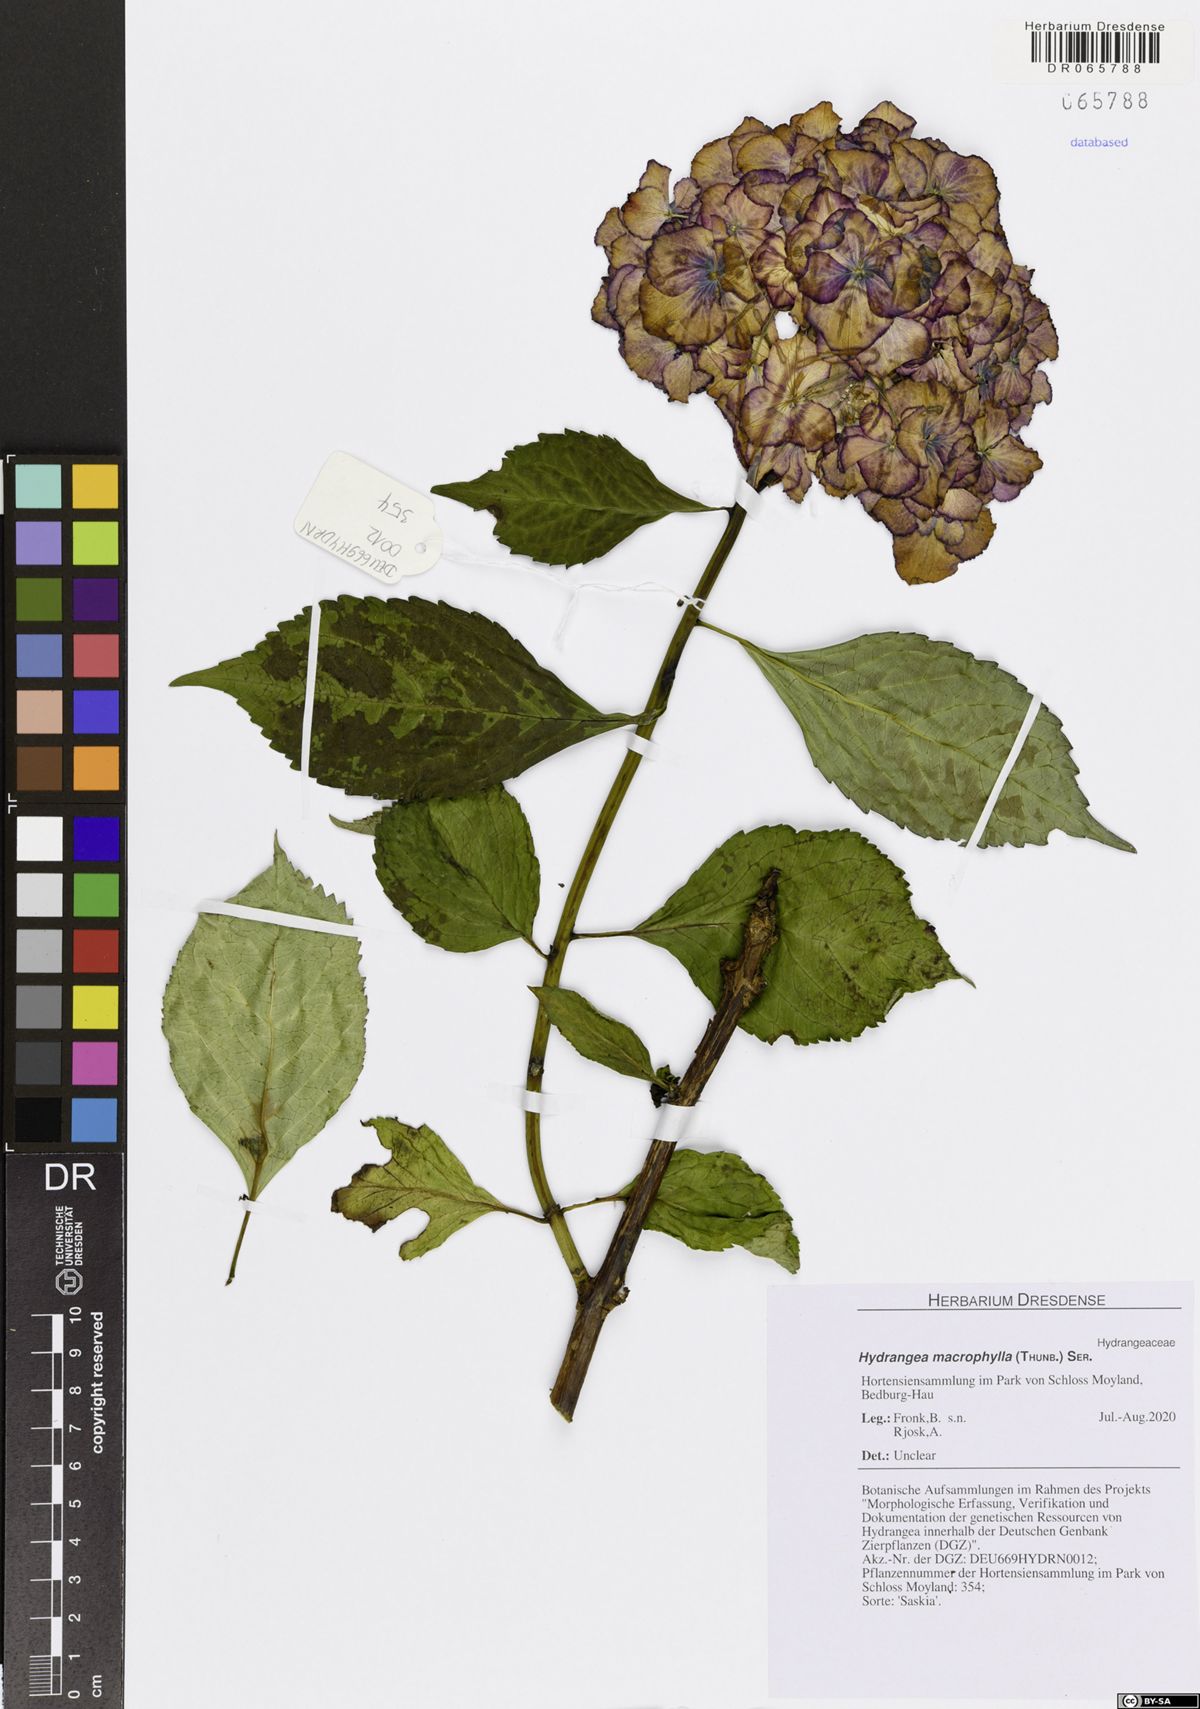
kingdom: Plantae
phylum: Tracheophyta
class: Magnoliopsida
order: Cornales
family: Hydrangeaceae
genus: Hydrangea
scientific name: Hydrangea macrophylla
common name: Hydrangea
